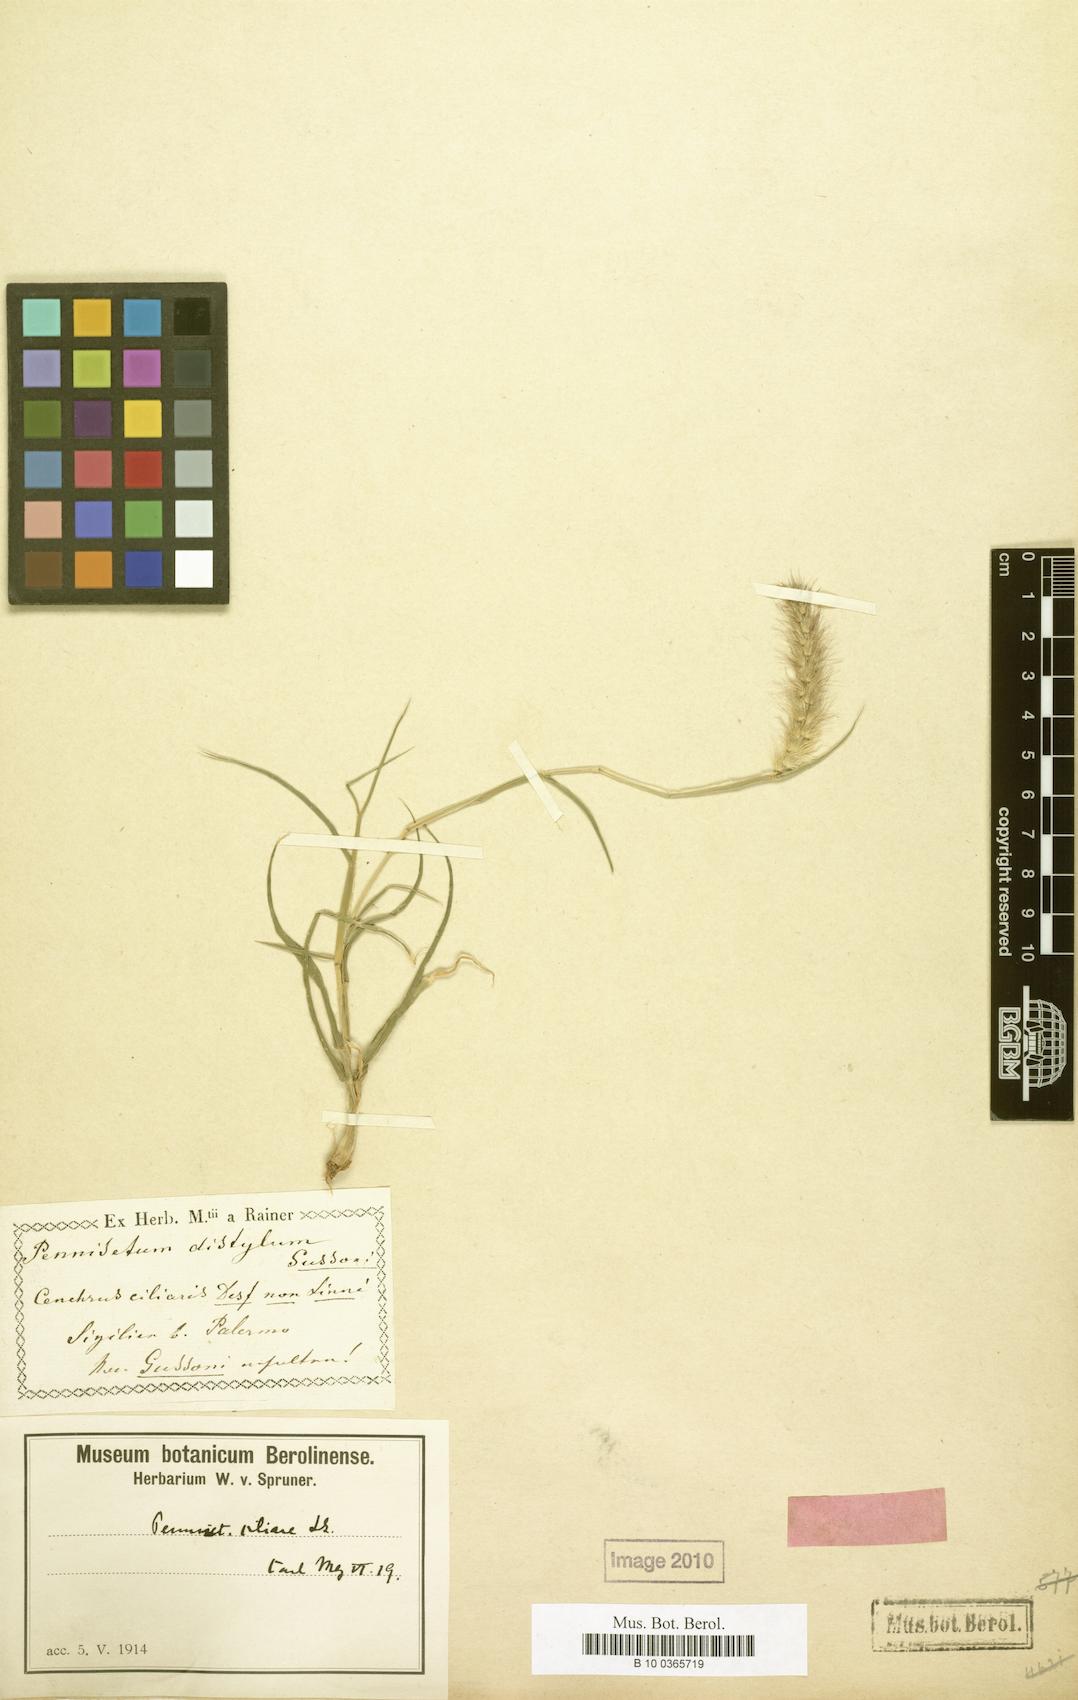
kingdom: Plantae
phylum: Tracheophyta
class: Liliopsida
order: Poales
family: Poaceae
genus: Cenchrus
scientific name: Cenchrus ciliaris
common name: Buffelgrass
